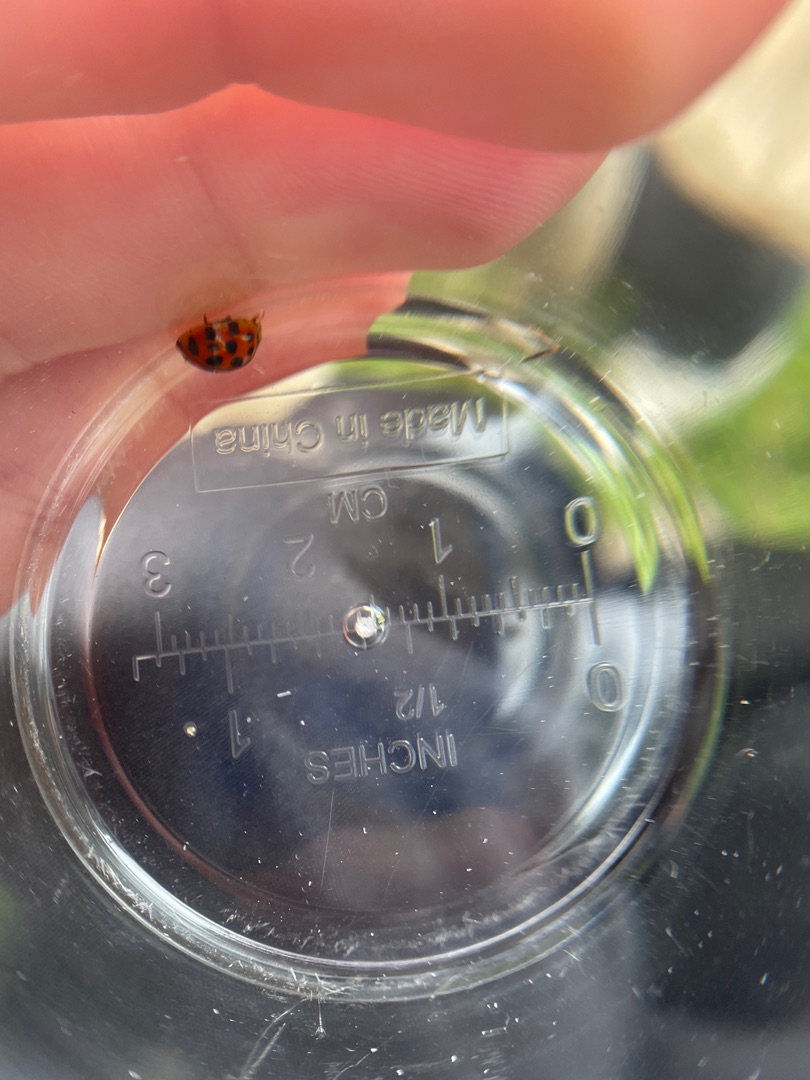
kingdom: Animalia
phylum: Arthropoda
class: Insecta
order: Coleoptera
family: Coccinellidae
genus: Harmonia
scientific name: Harmonia axyridis
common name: Harlekinmariehøne
